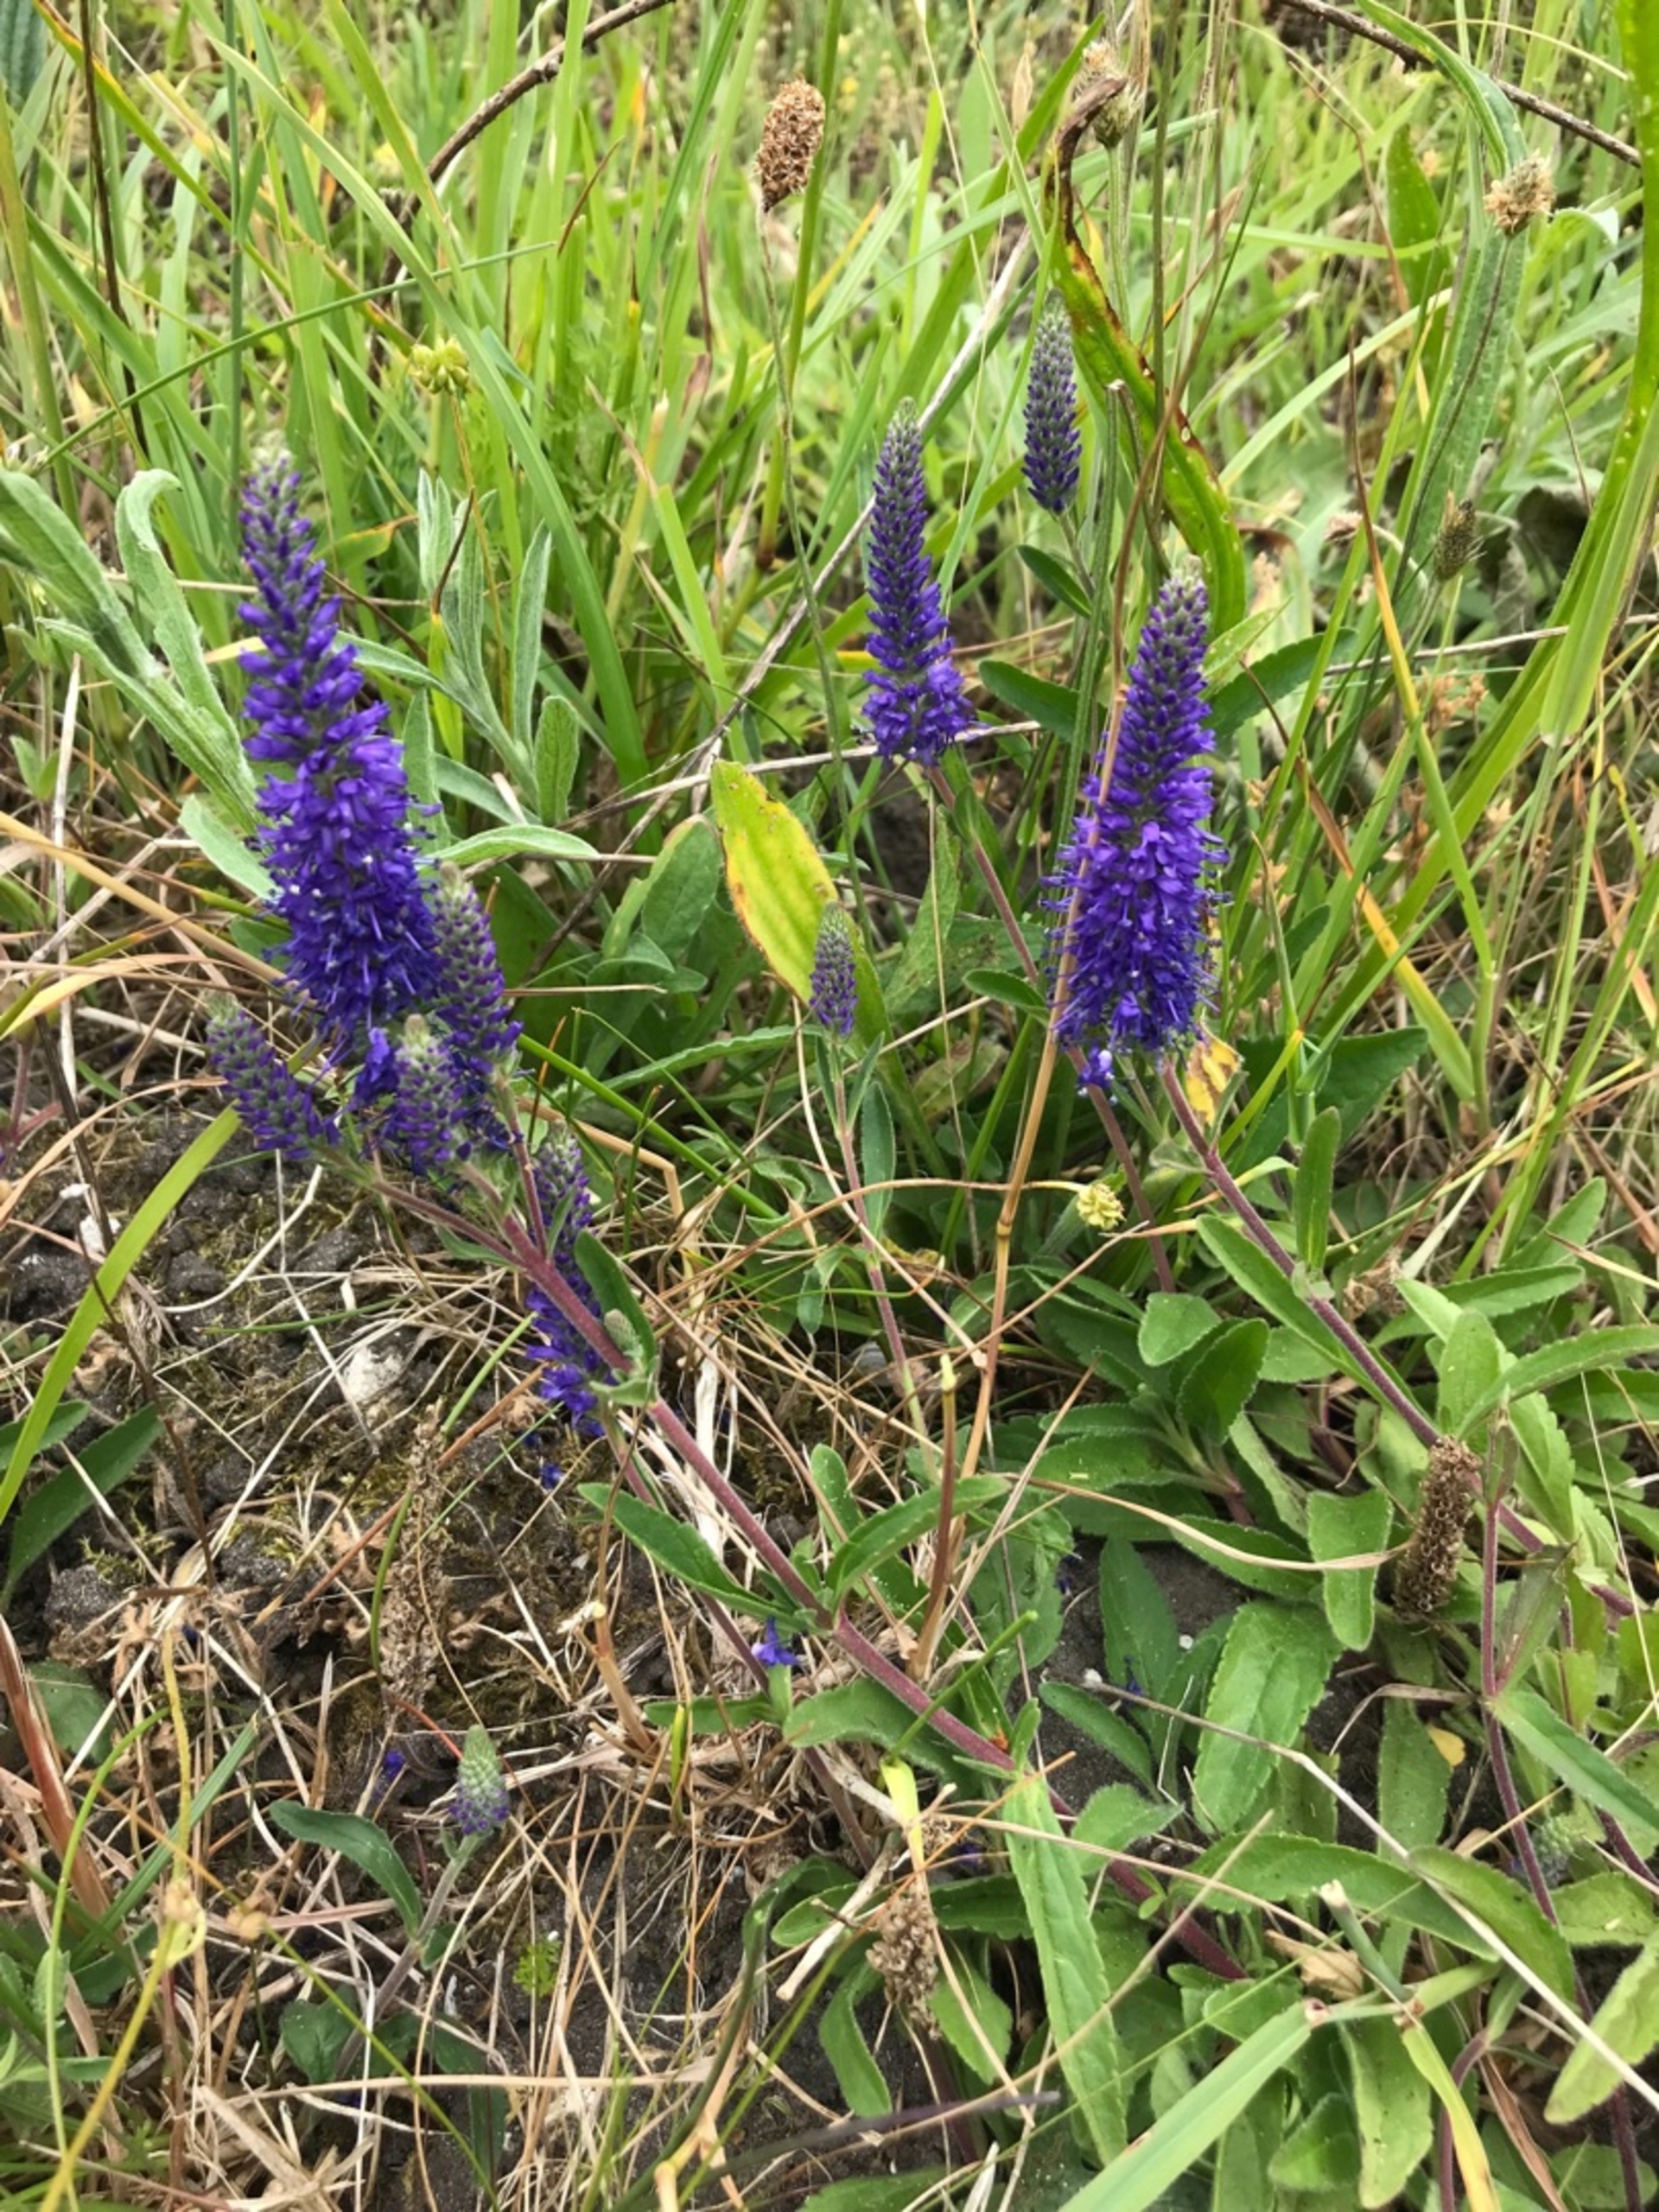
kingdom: Plantae
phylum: Tracheophyta
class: Magnoliopsida
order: Lamiales
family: Plantaginaceae
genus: Veronica
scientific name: Veronica spicata
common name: Aks-ærenpris
